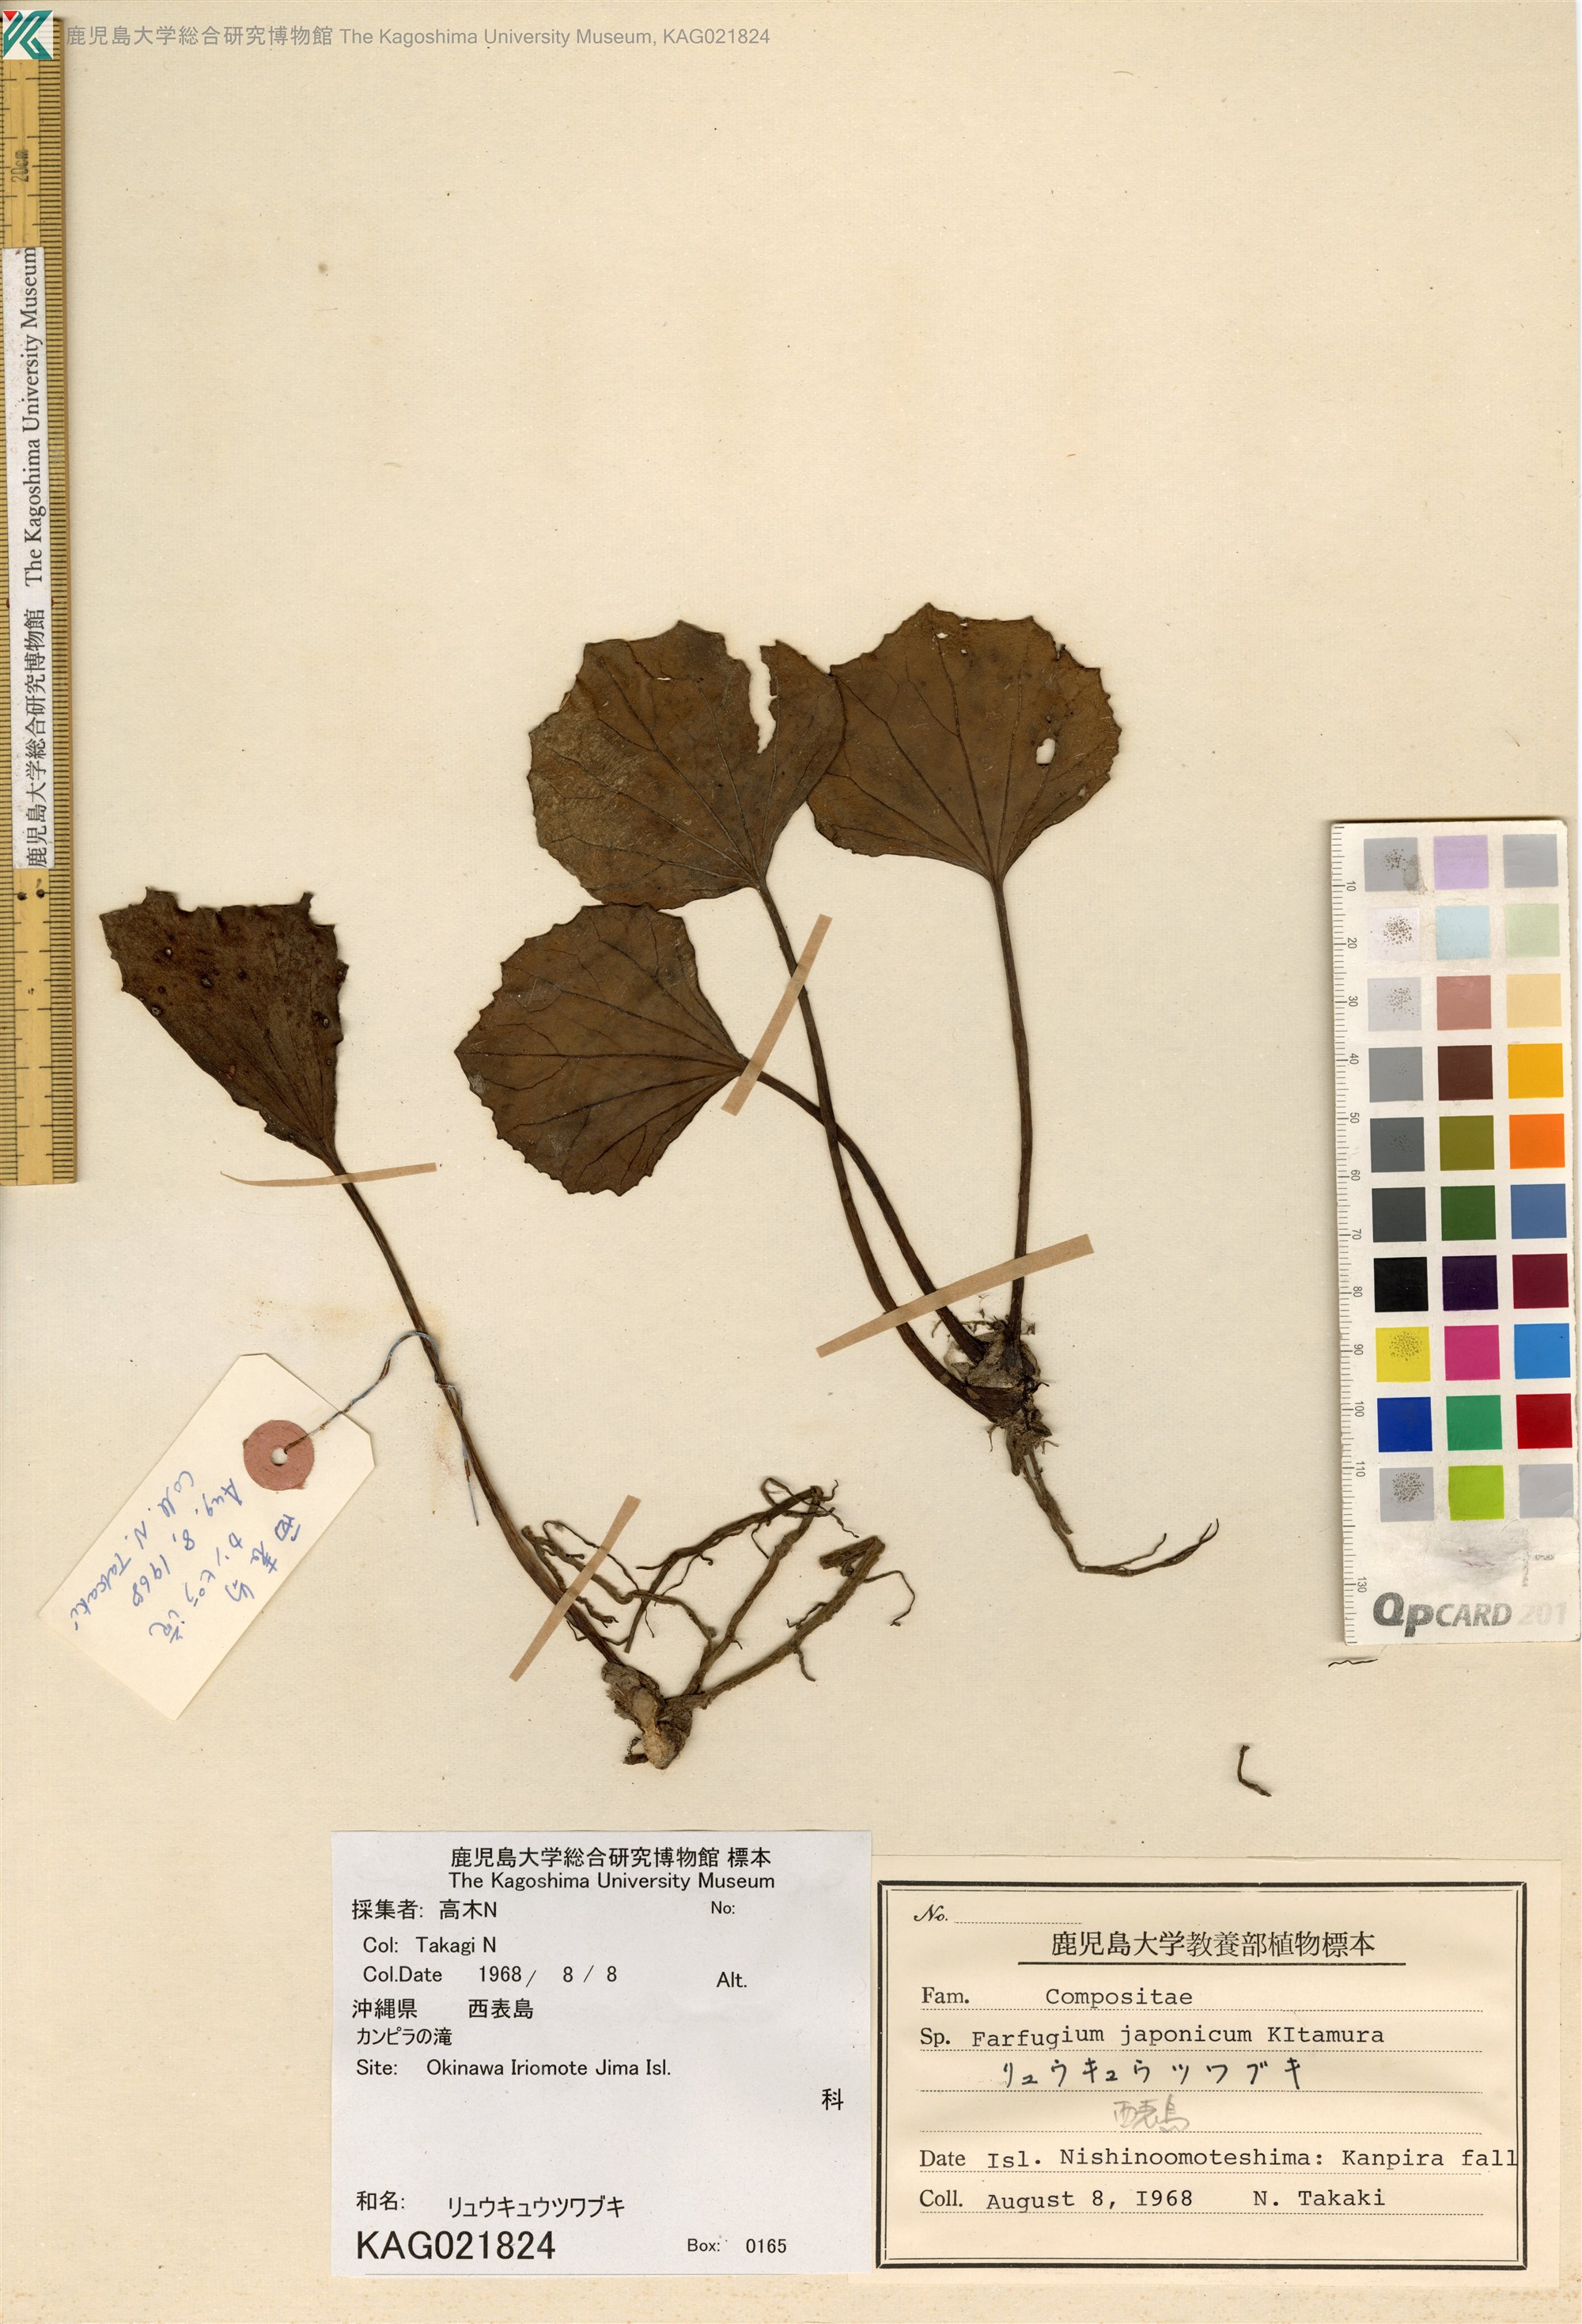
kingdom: Plantae
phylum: Tracheophyta
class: Magnoliopsida
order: Asterales
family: Asteraceae
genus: Farfugium
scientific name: Farfugium japonicum
